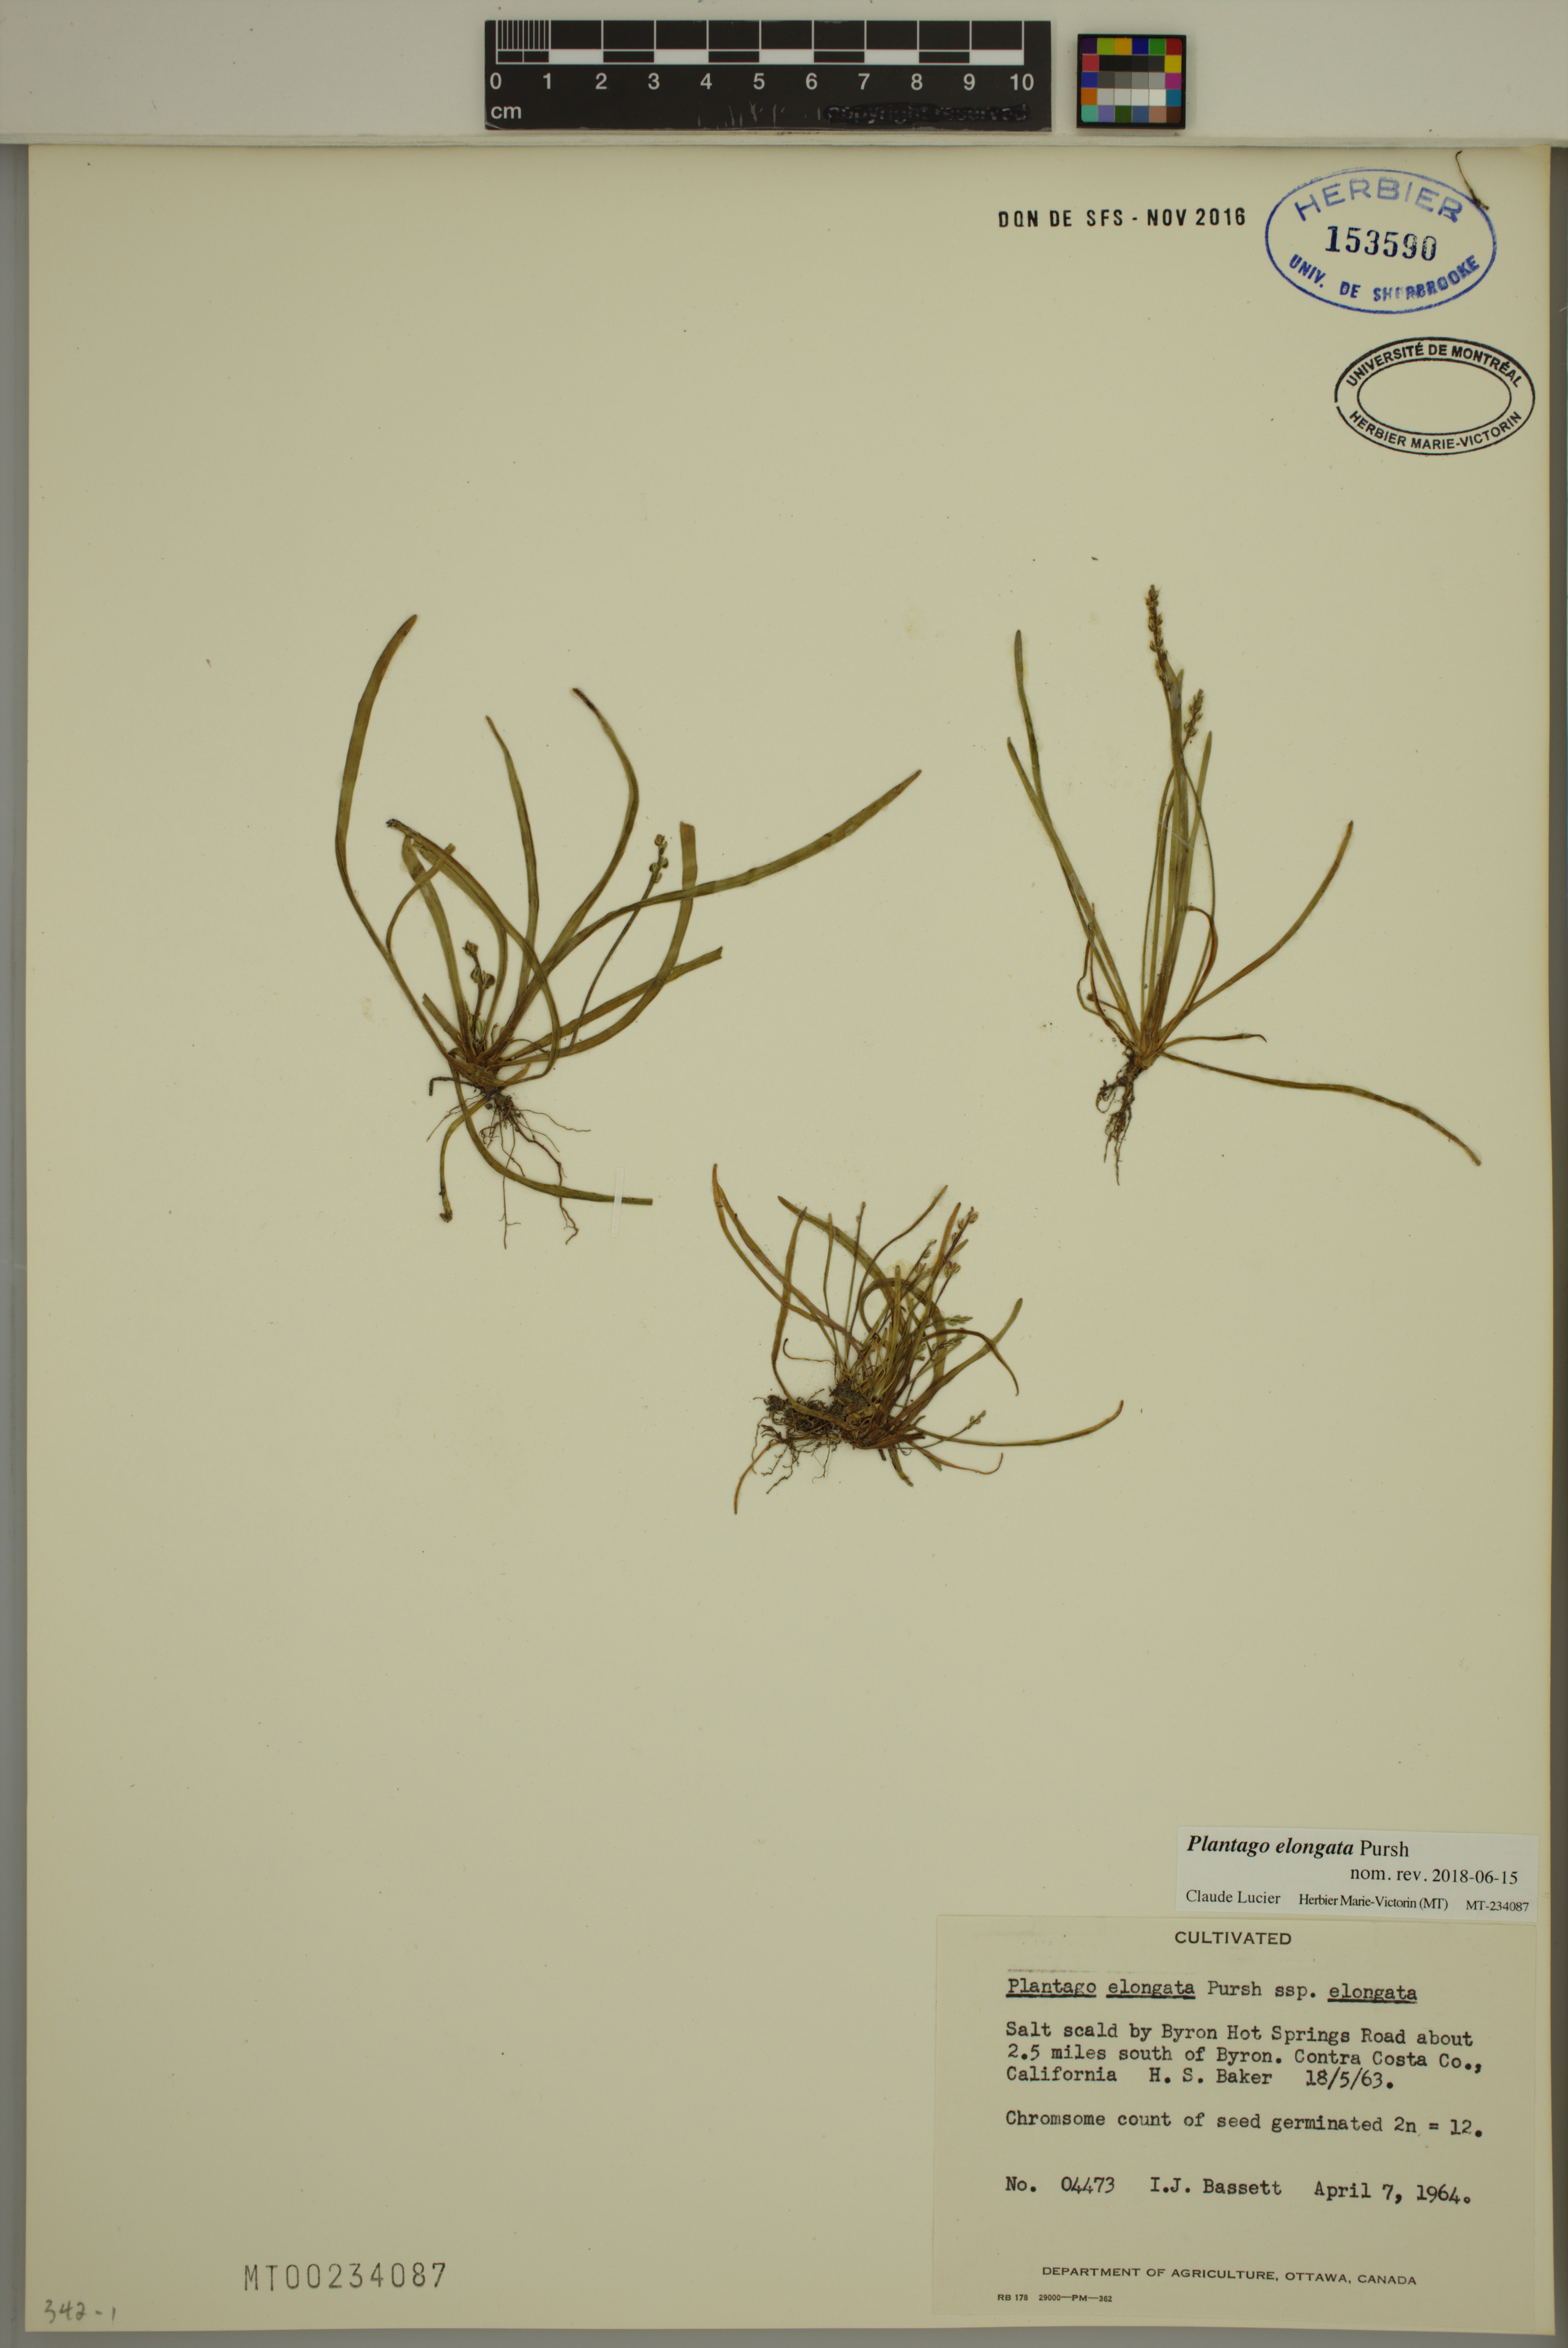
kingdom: Plantae
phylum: Tracheophyta
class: Magnoliopsida
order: Lamiales
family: Plantaginaceae
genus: Plantago
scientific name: Plantago elongata
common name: Linear-leaved plantain
